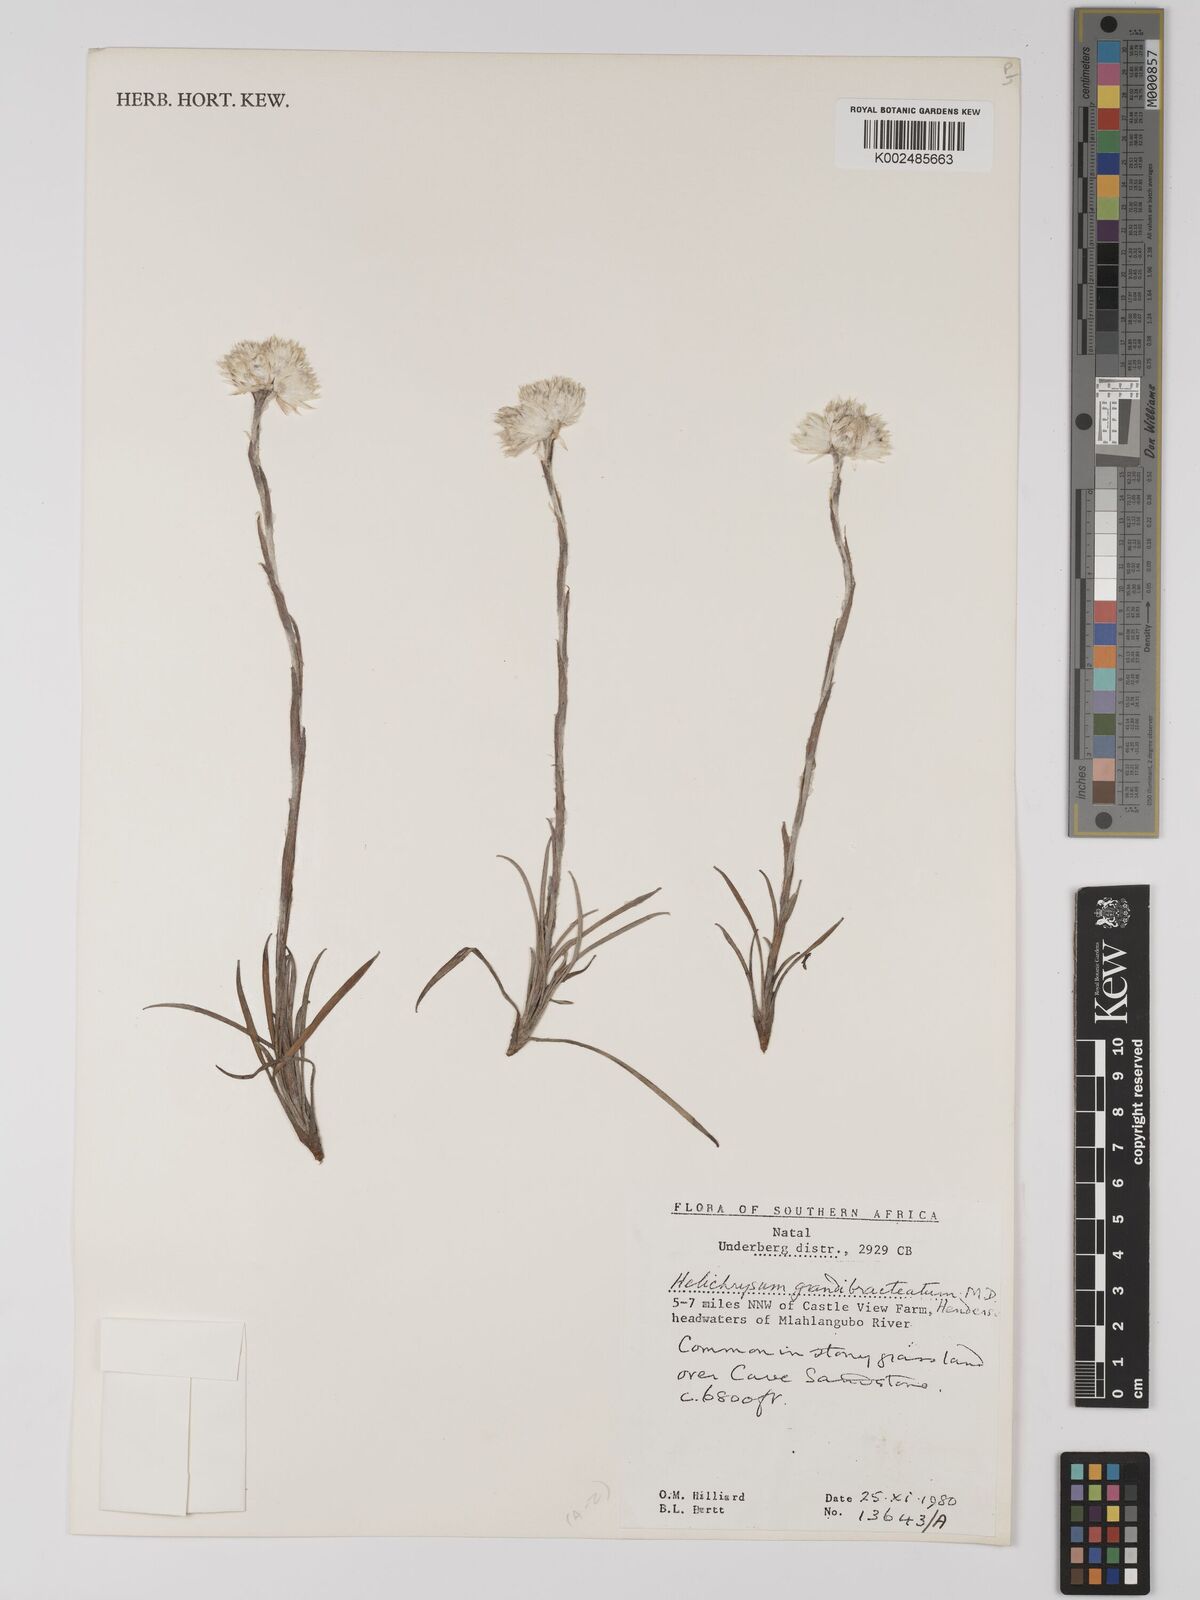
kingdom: Plantae
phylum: Tracheophyta
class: Magnoliopsida
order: Asterales
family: Asteraceae
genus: Helichrysum
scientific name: Helichrysum grandibracteatum
